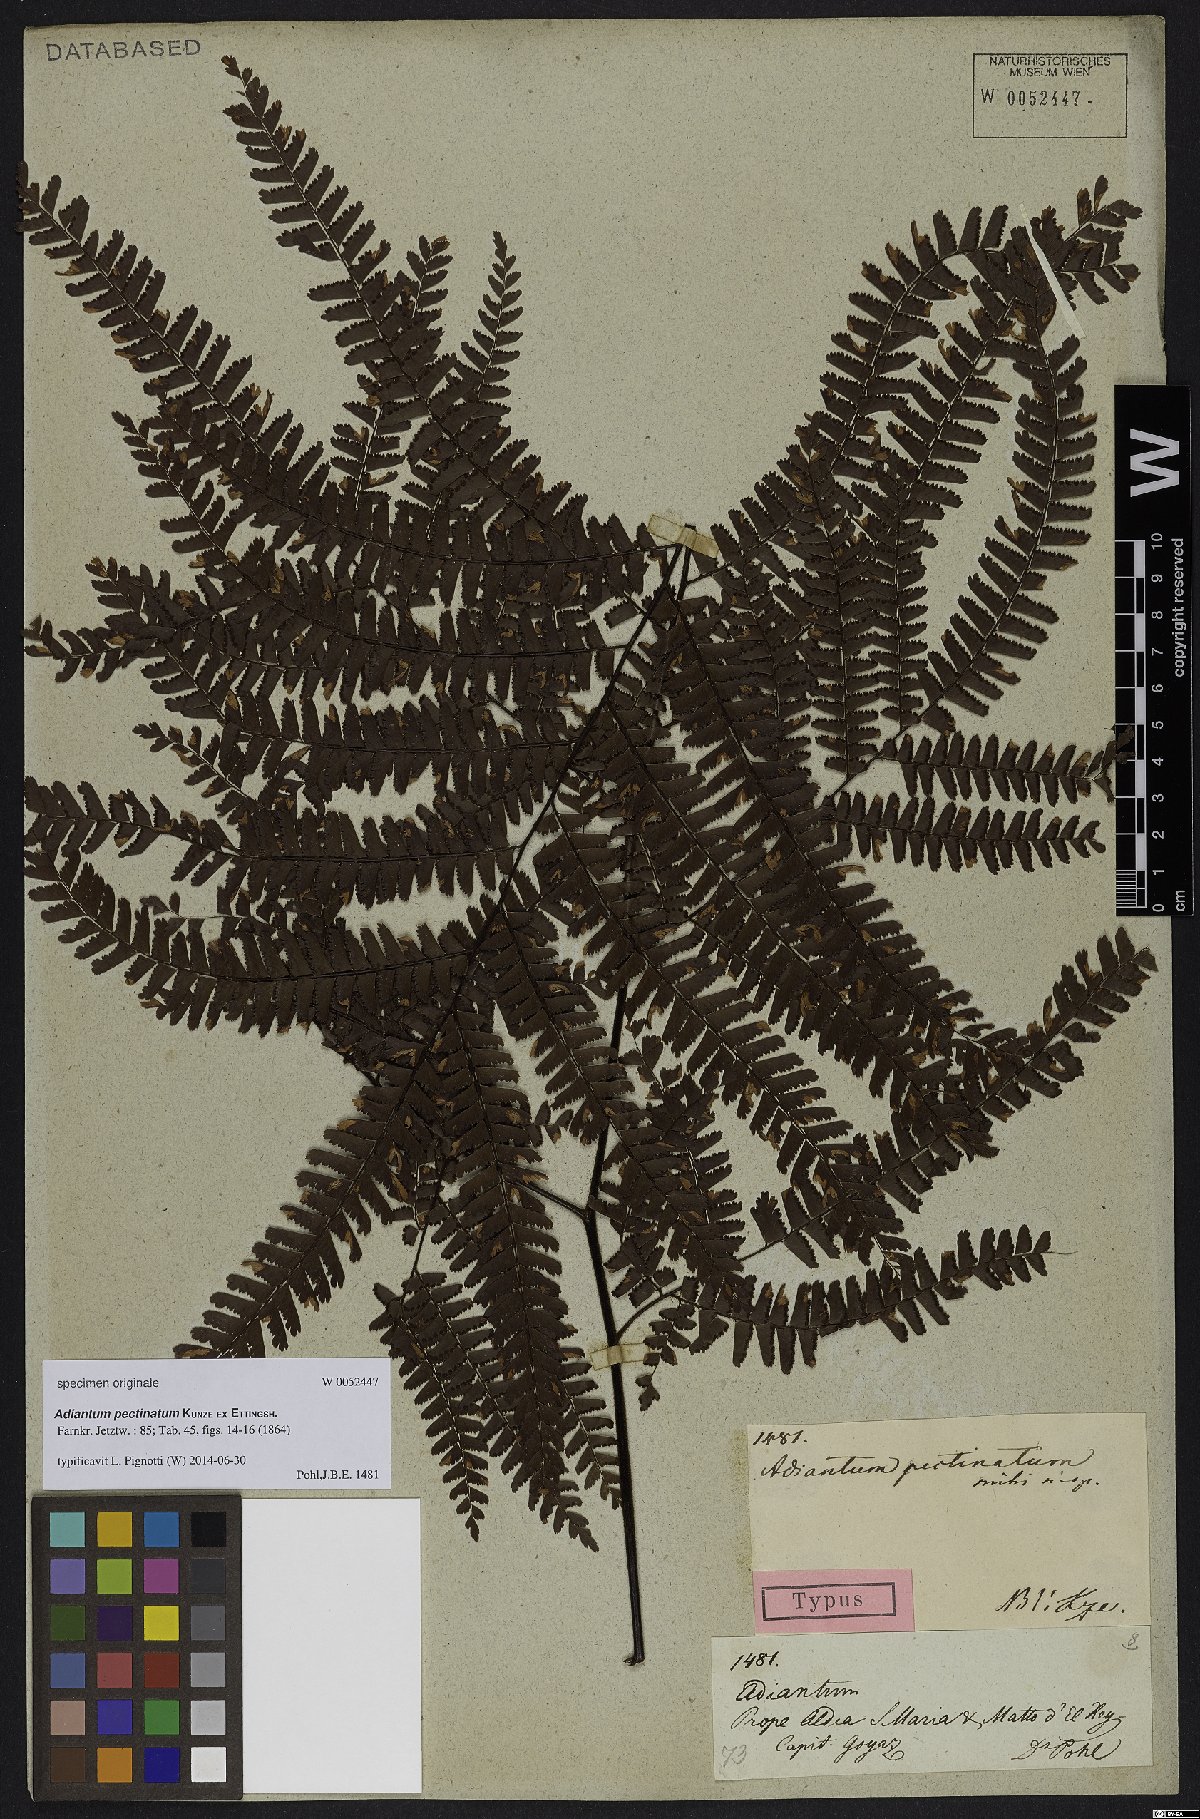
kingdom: Plantae
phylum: Tracheophyta
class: Polypodiopsida
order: Polypodiales
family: Pteridaceae
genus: Adiantum
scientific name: Adiantum pactinatum
